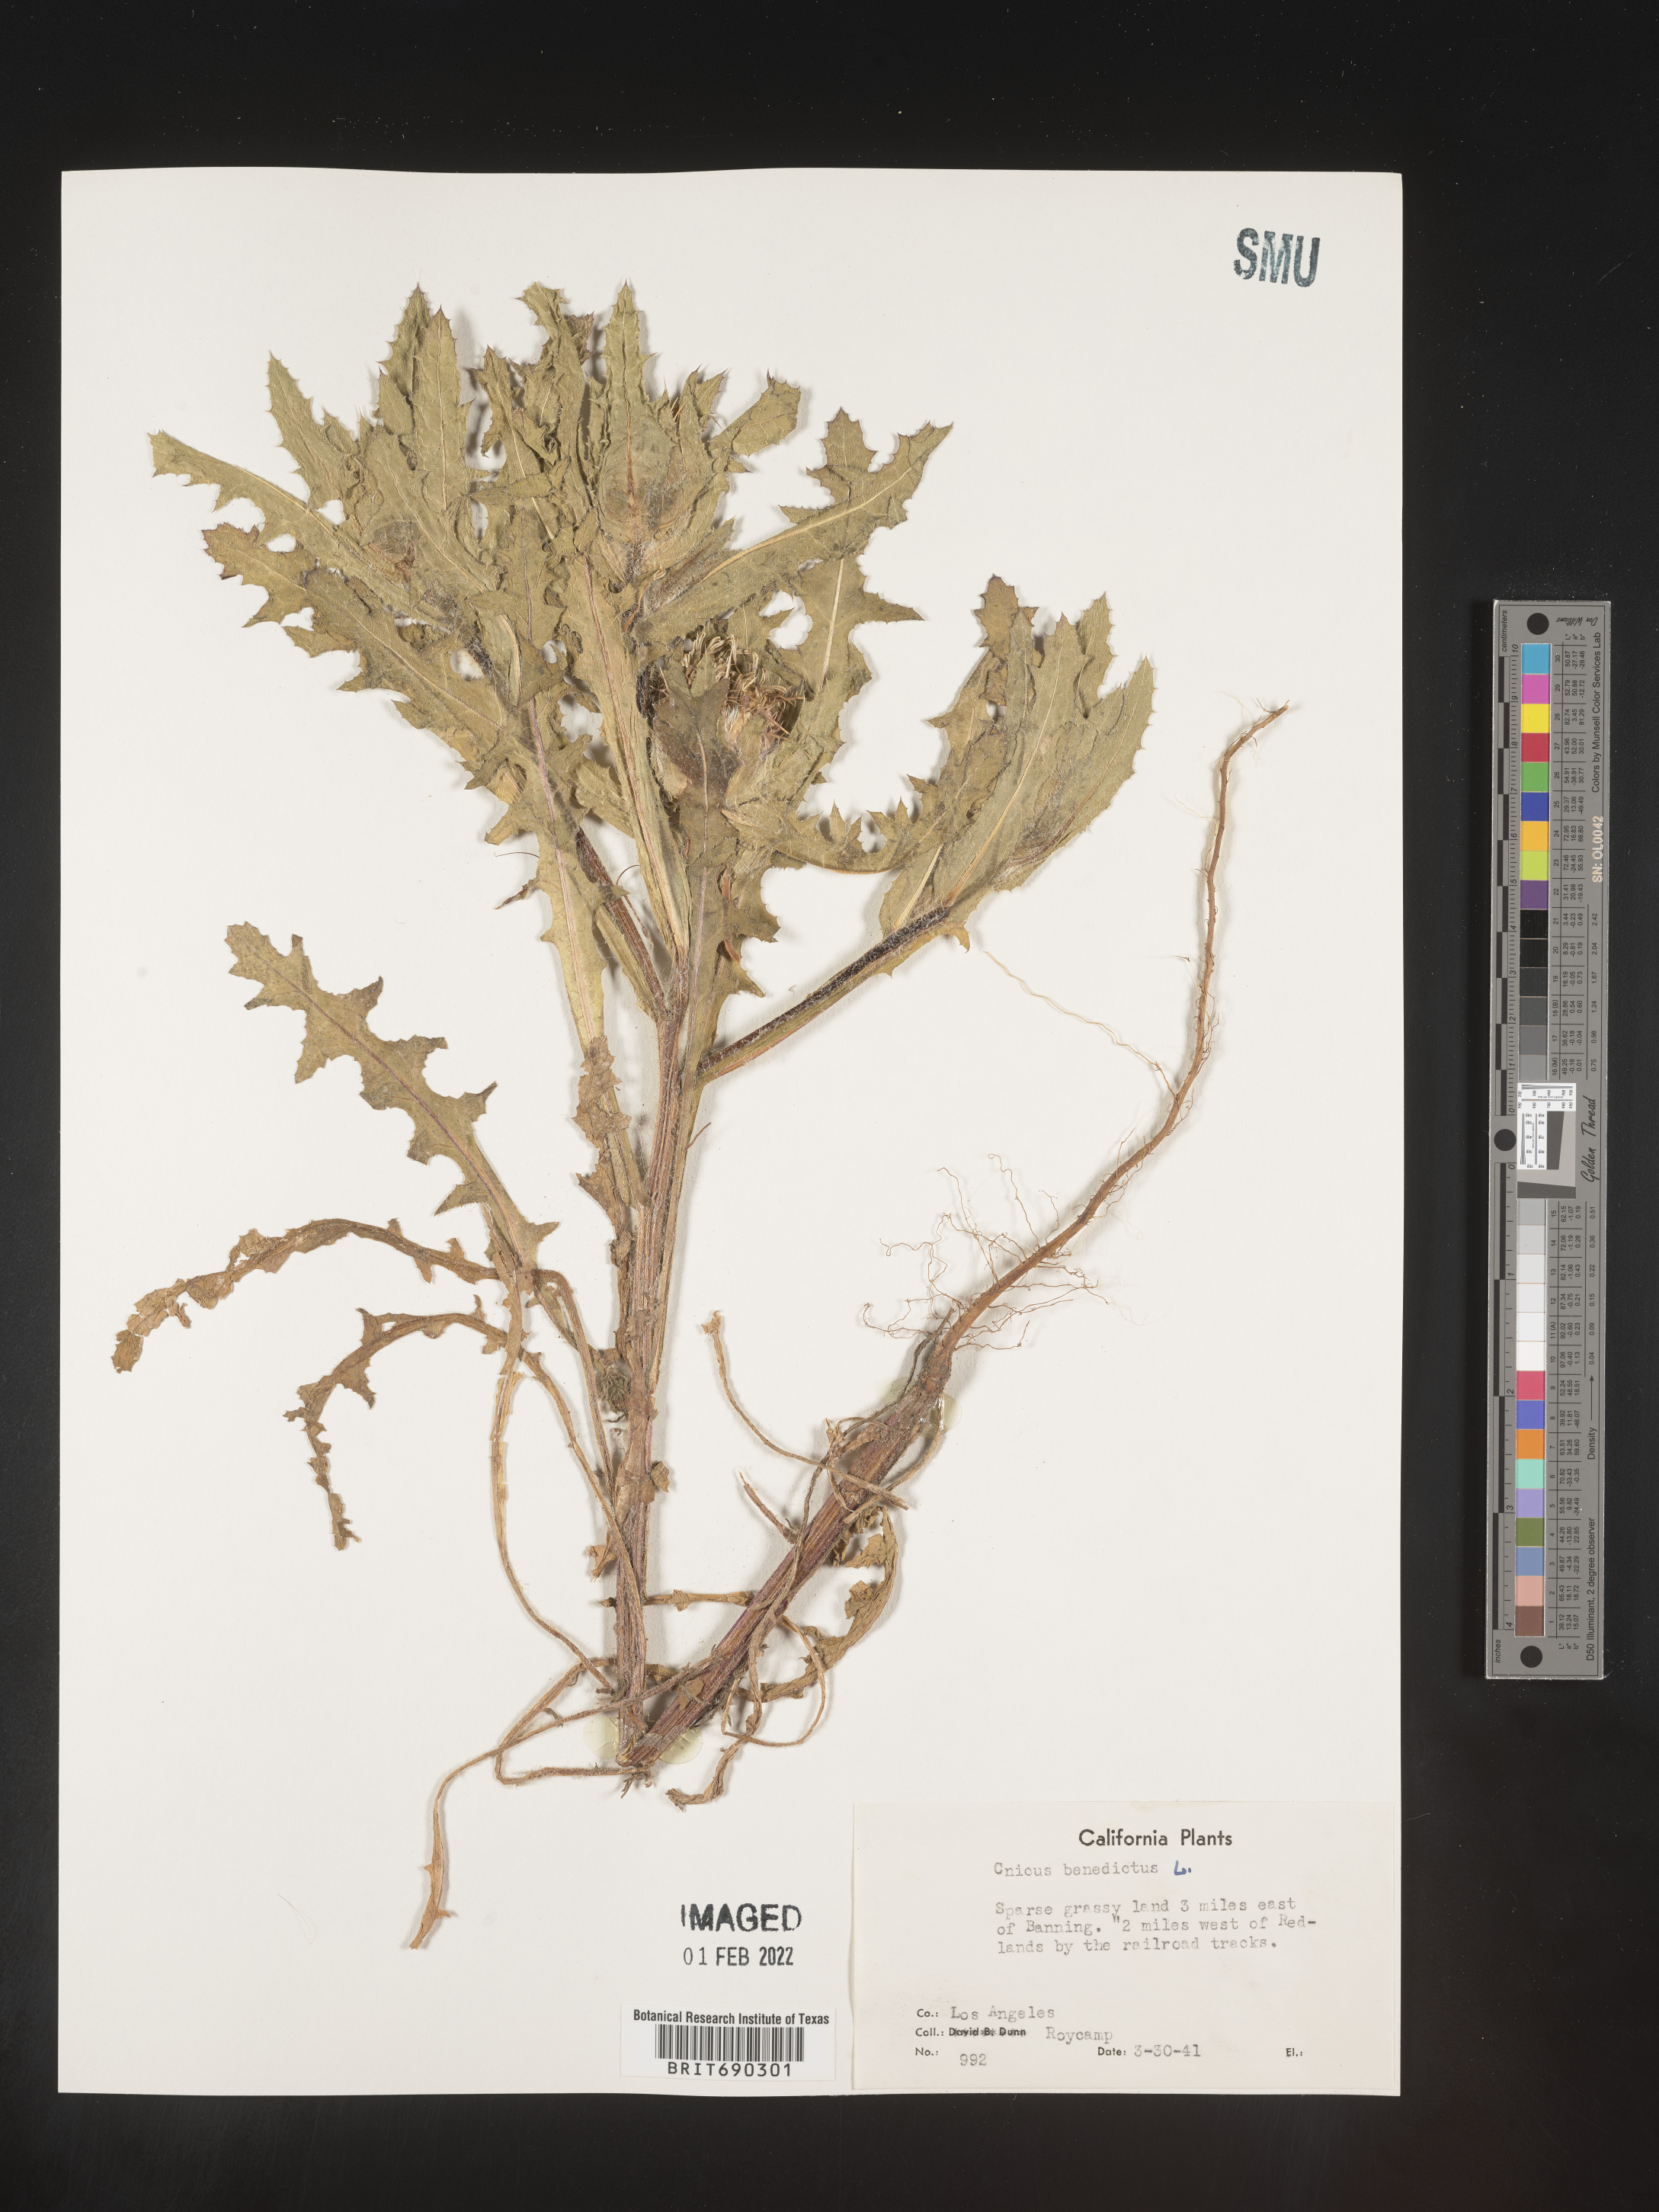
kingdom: Plantae
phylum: Tracheophyta
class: Magnoliopsida
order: Asterales
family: Asteraceae
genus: Centaurea
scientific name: Centaurea
